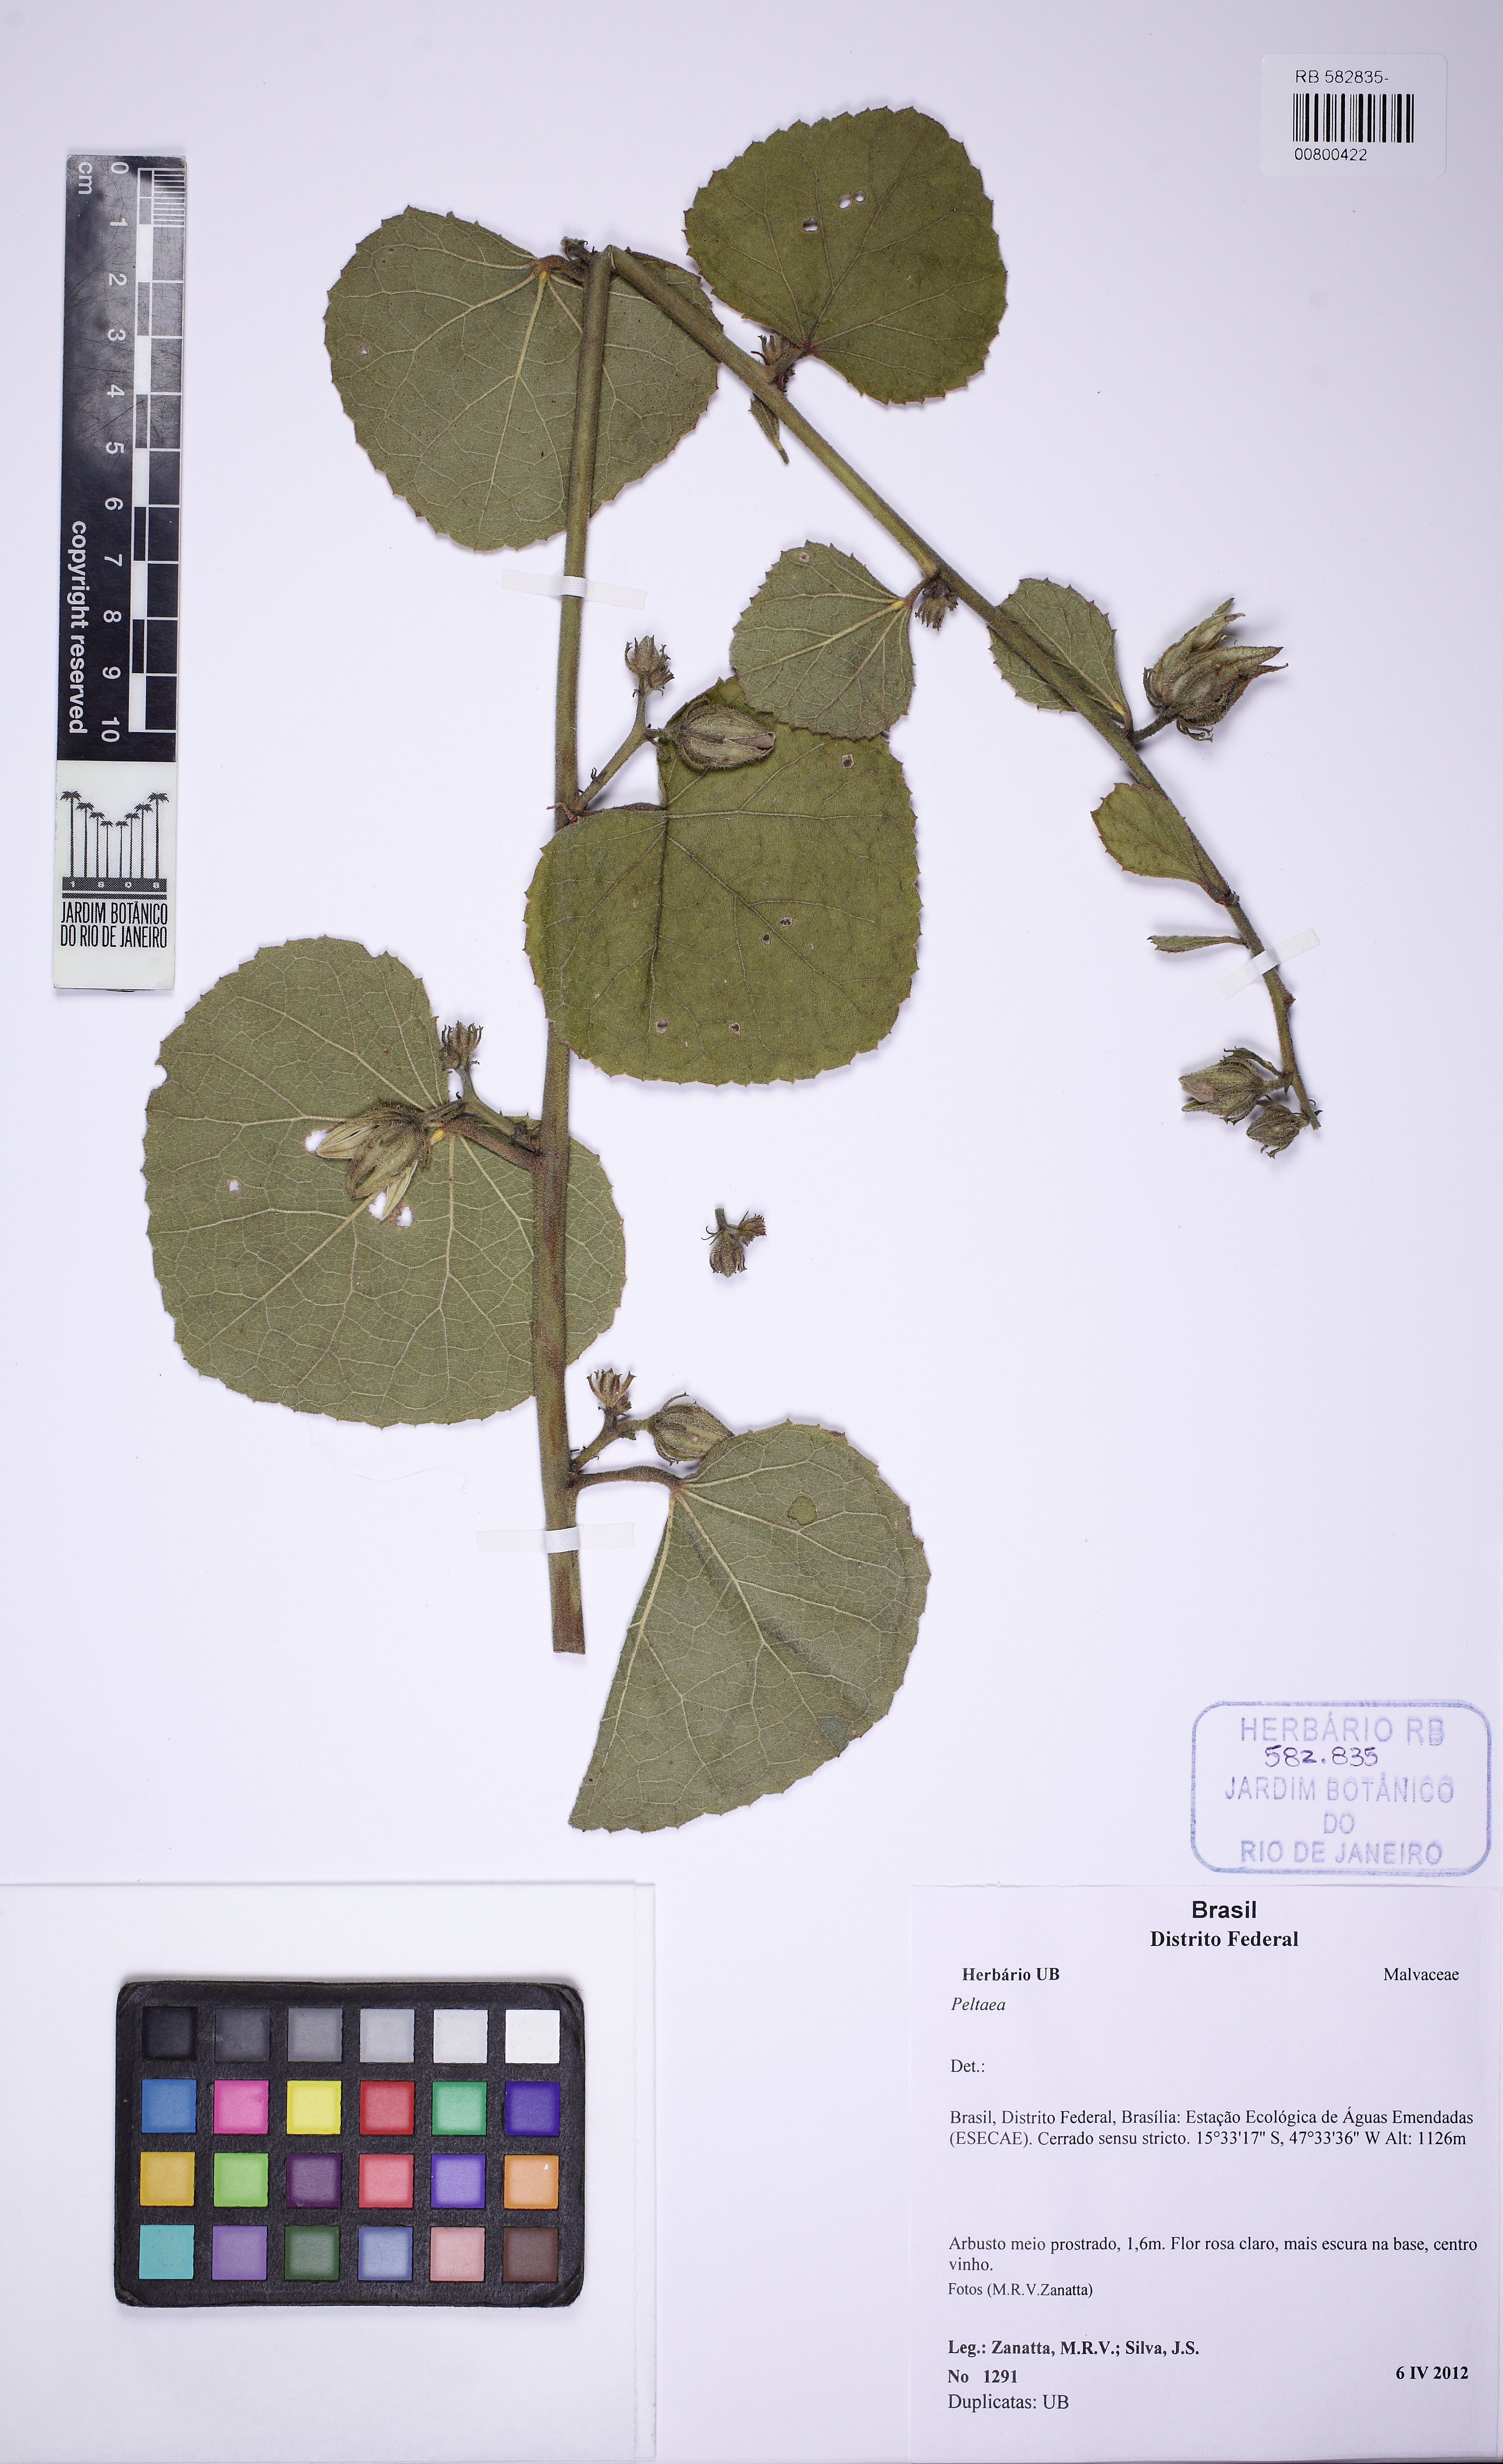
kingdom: Plantae
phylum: Tracheophyta
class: Magnoliopsida
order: Malvales
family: Malvaceae
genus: Hibiscus
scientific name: Hibiscus capitalensis
